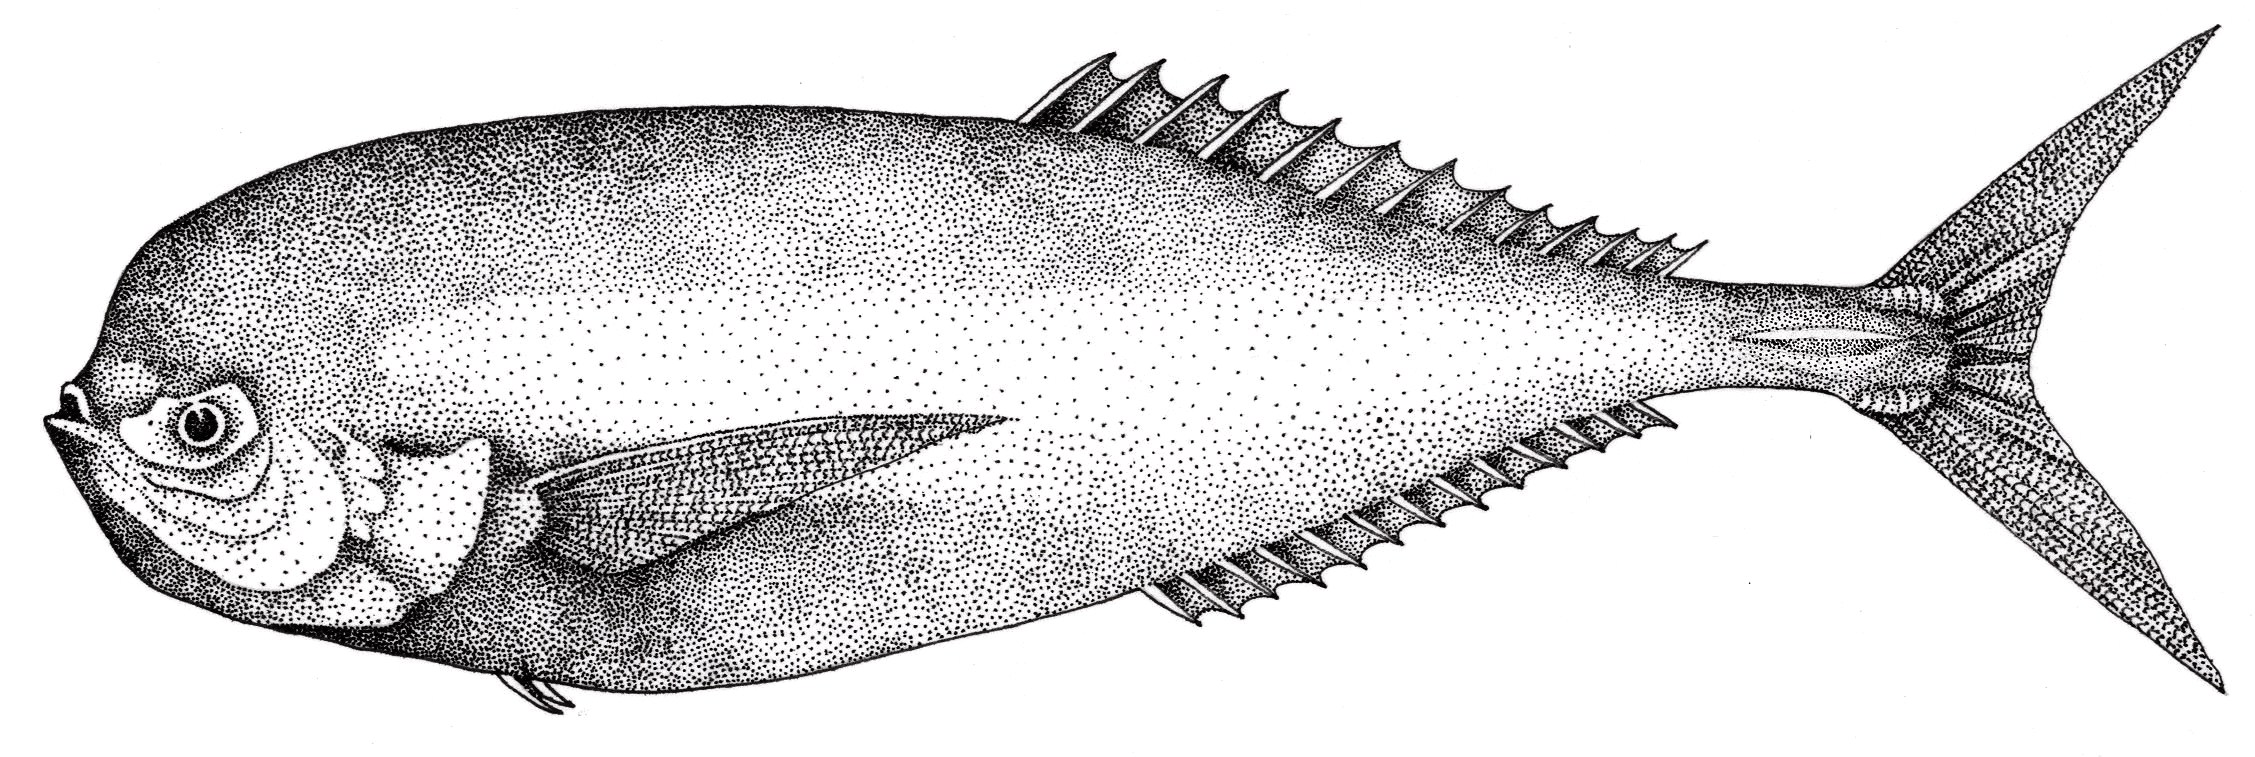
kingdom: Animalia
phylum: Chordata
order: Perciformes
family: Luvaridae
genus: Luvarus
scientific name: Luvarus imperialis
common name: Louvar
